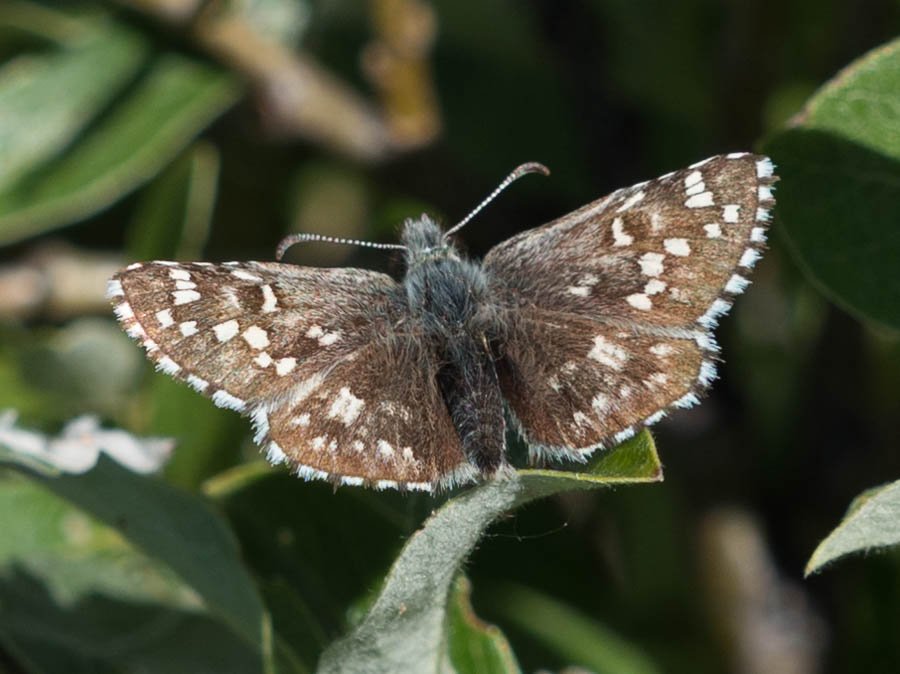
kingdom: Animalia
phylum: Arthropoda
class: Insecta
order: Lepidoptera
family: Hesperiidae
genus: Pyrgus
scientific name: Pyrgus centaureae
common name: Grizzled Skipper
